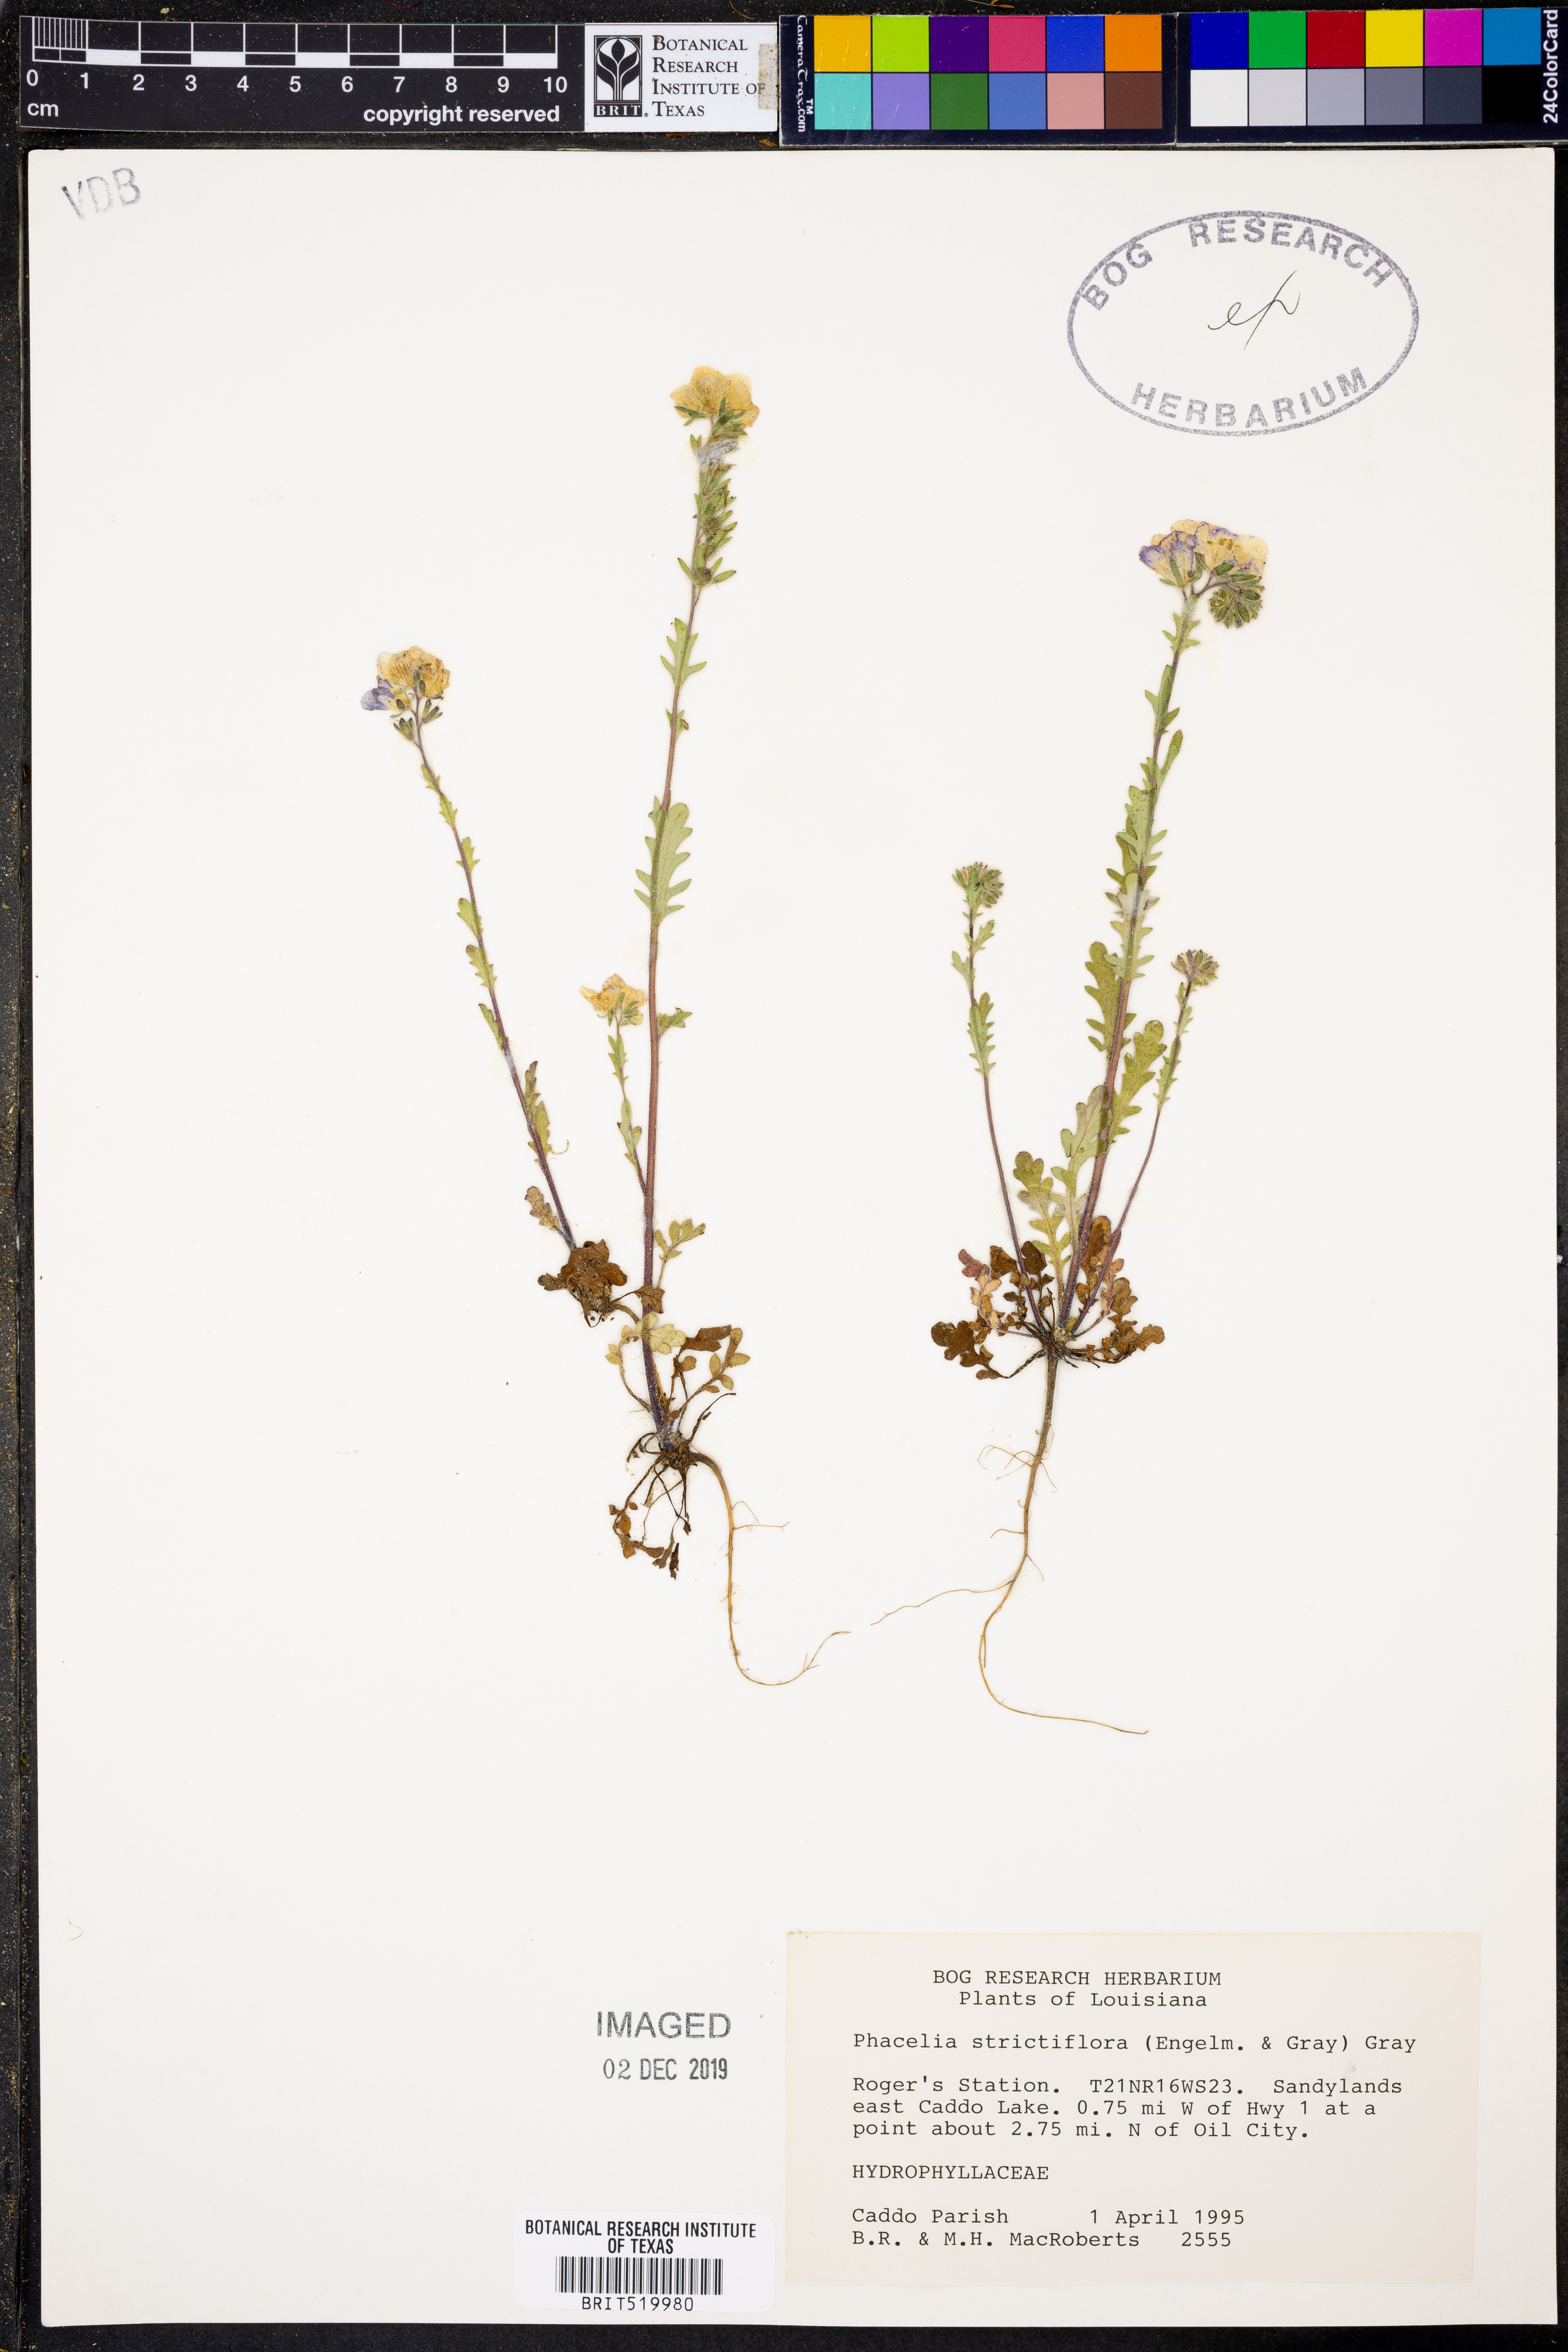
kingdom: Plantae
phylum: Tracheophyta
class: Magnoliopsida
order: Boraginales
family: Hydrophyllaceae
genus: Phacelia
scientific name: Phacelia strictiflora
